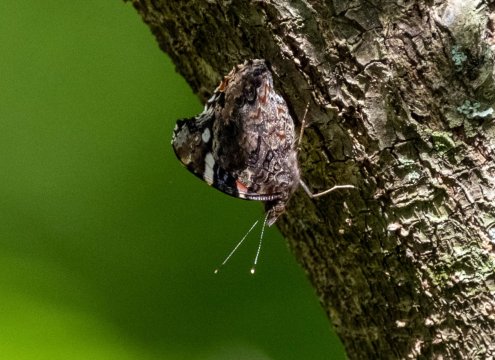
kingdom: Animalia
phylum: Arthropoda
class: Insecta
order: Lepidoptera
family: Nymphalidae
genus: Vanessa
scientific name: Vanessa atalanta
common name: Red Admiral
